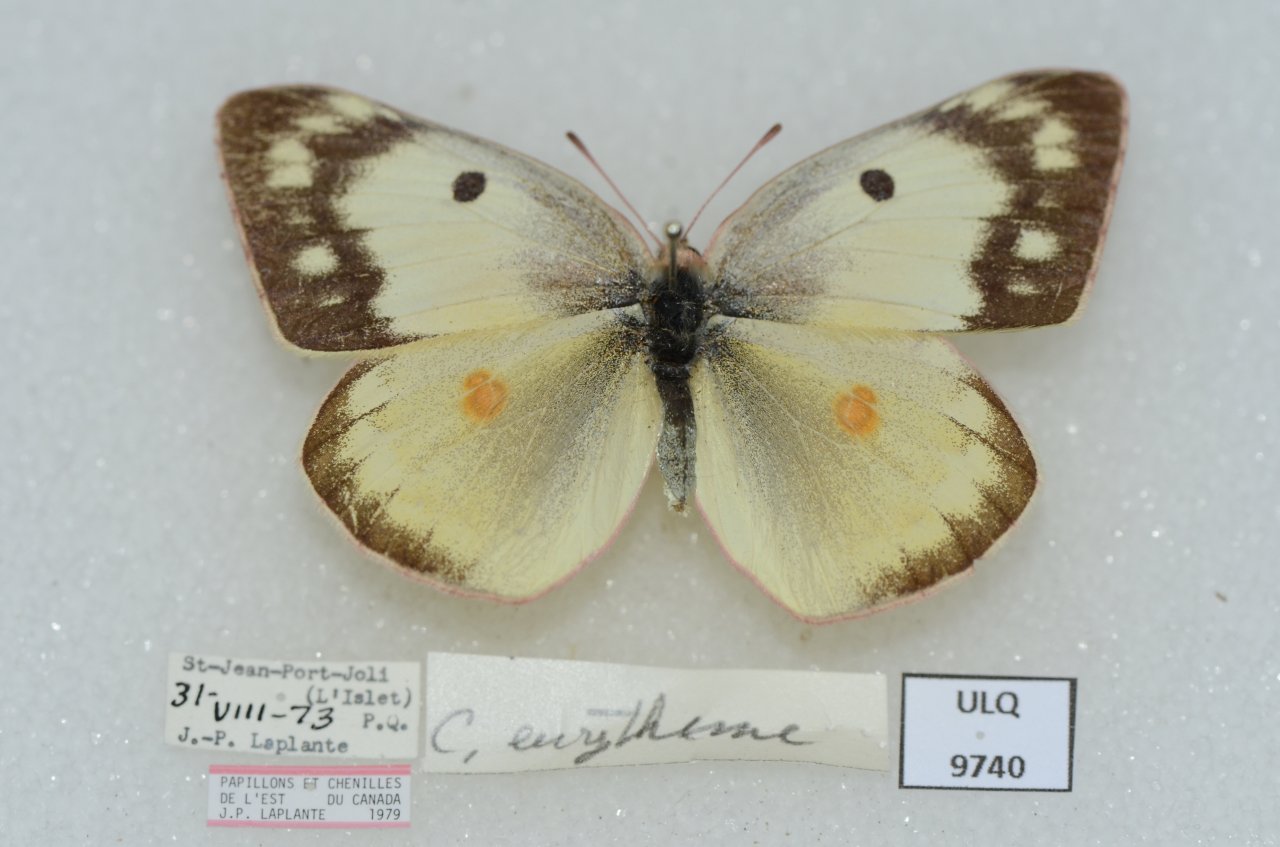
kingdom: Animalia
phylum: Arthropoda
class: Insecta
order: Lepidoptera
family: Pieridae
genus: Colias
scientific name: Colias philodice
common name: Clouded Sulphur
